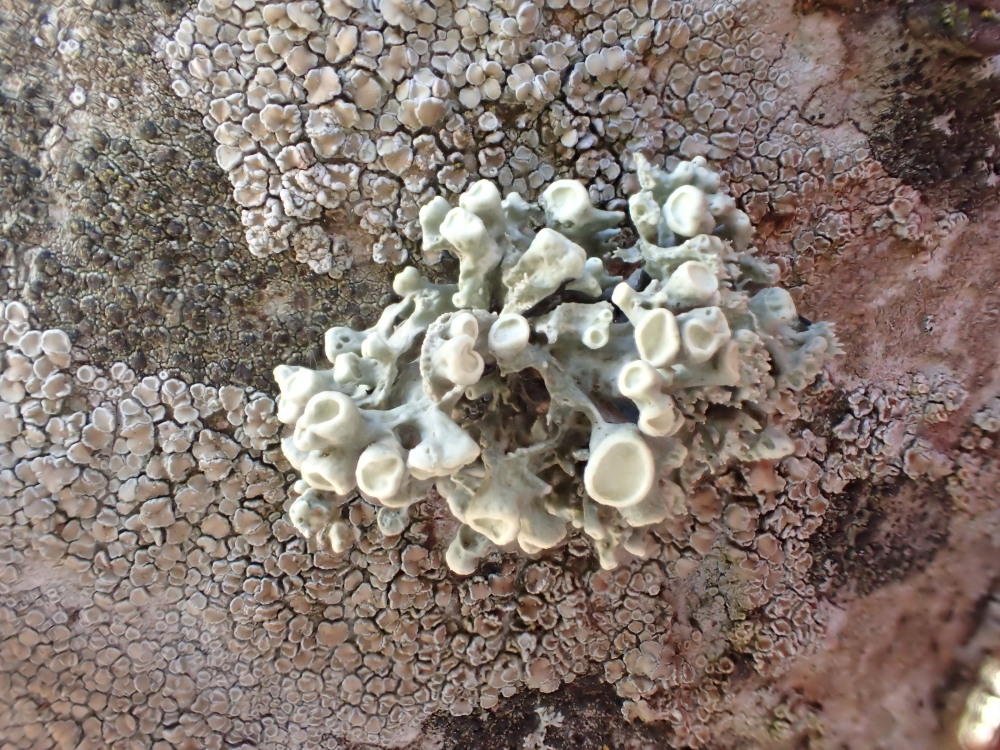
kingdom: Fungi
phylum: Ascomycota
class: Lecanoromycetes
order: Lecanorales
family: Ramalinaceae
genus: Ramalina
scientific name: Ramalina fastigiata
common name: tue-grenlav
